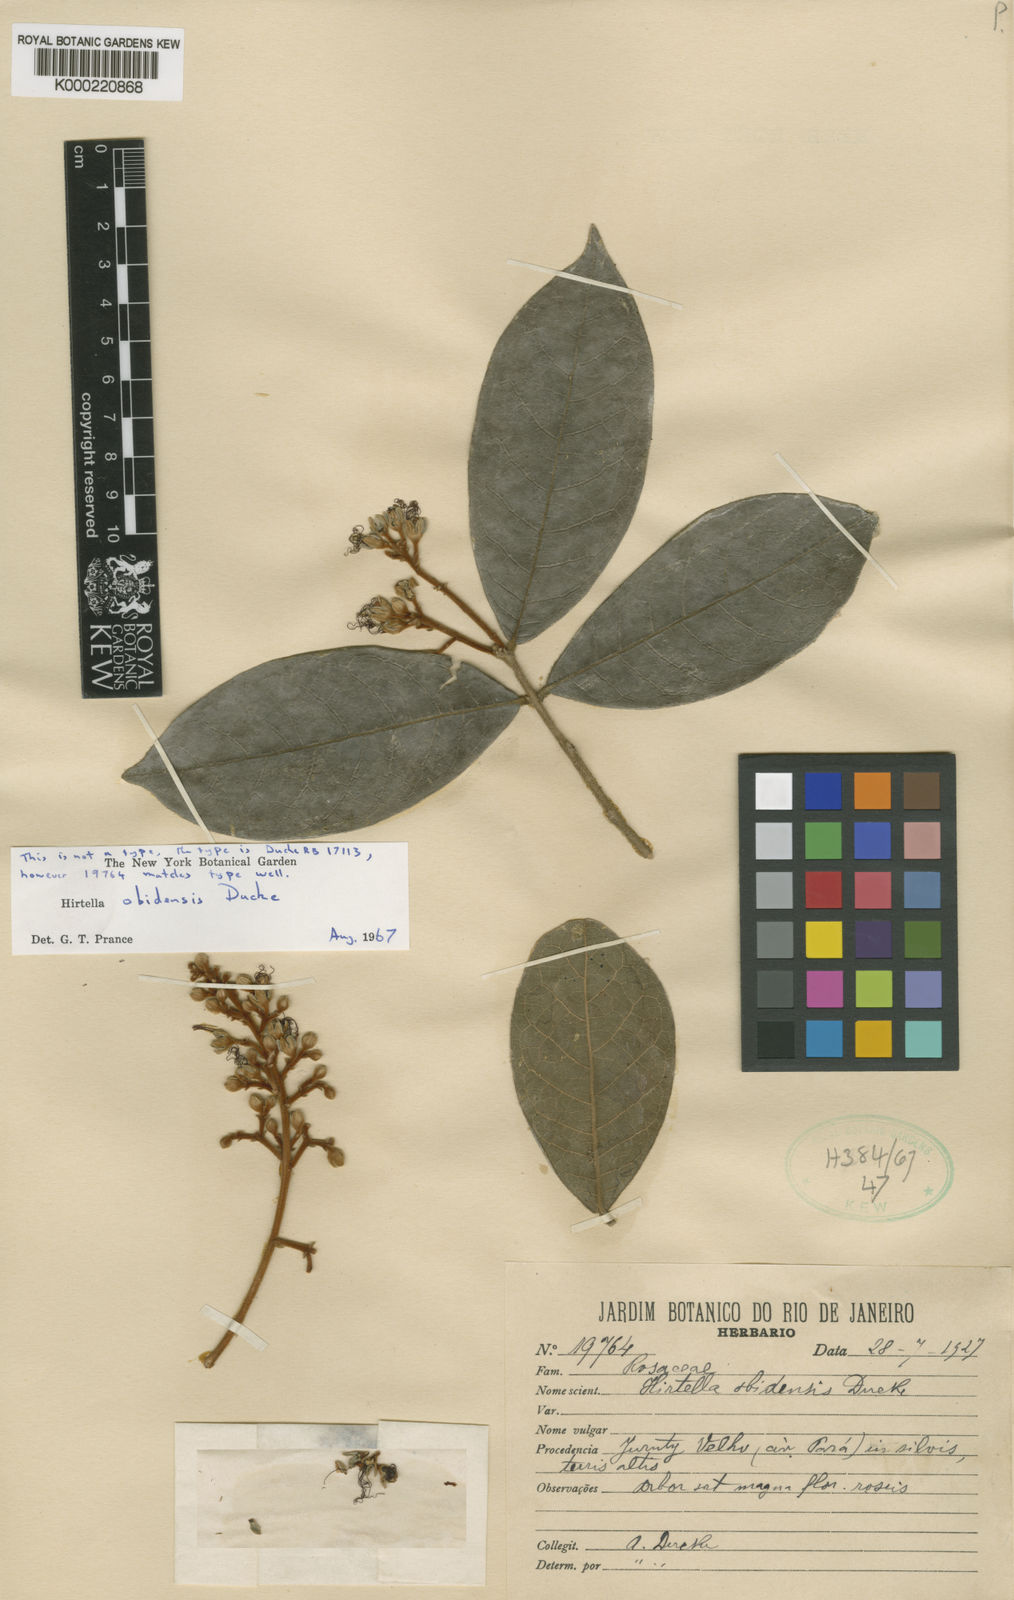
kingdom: Plantae
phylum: Tracheophyta
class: Magnoliopsida
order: Malpighiales
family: Chrysobalanaceae
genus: Hirtella
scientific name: Hirtella obidensis
